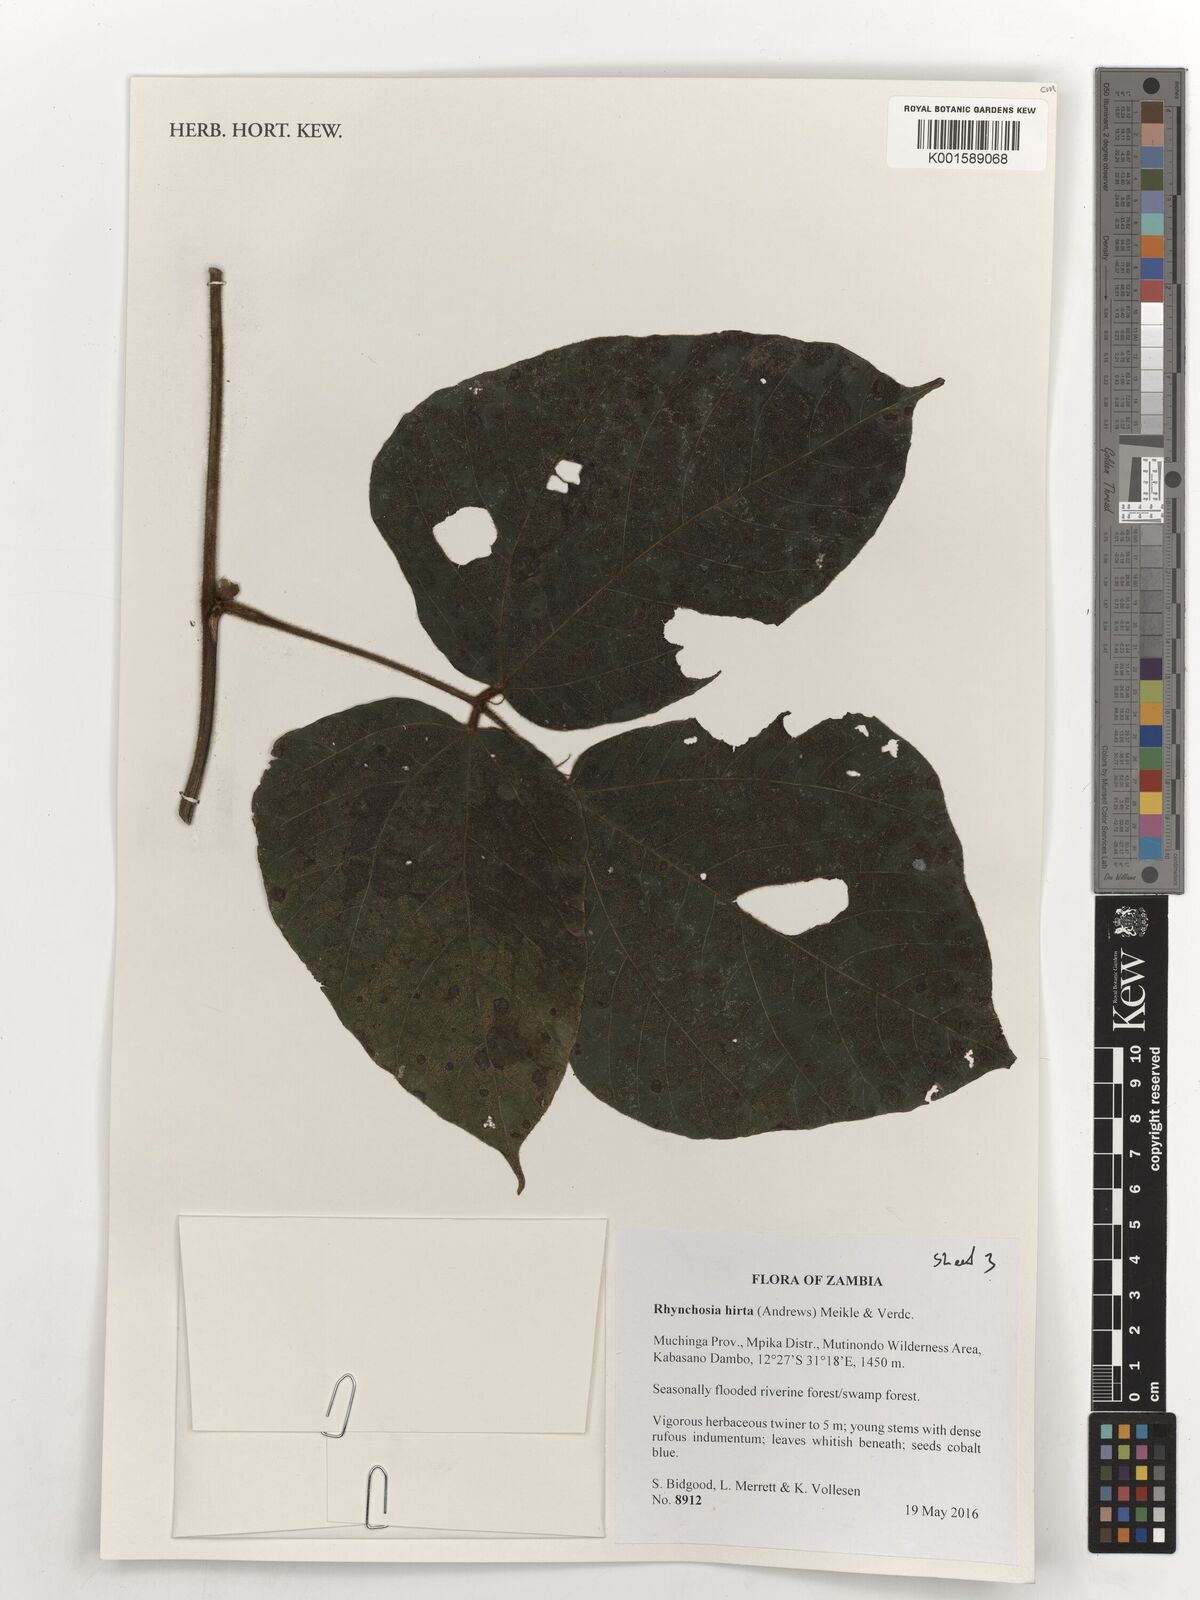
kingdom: Plantae
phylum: Tracheophyta
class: Magnoliopsida
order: Fabales
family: Fabaceae
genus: Rhynchosia
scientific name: Rhynchosia hirta
